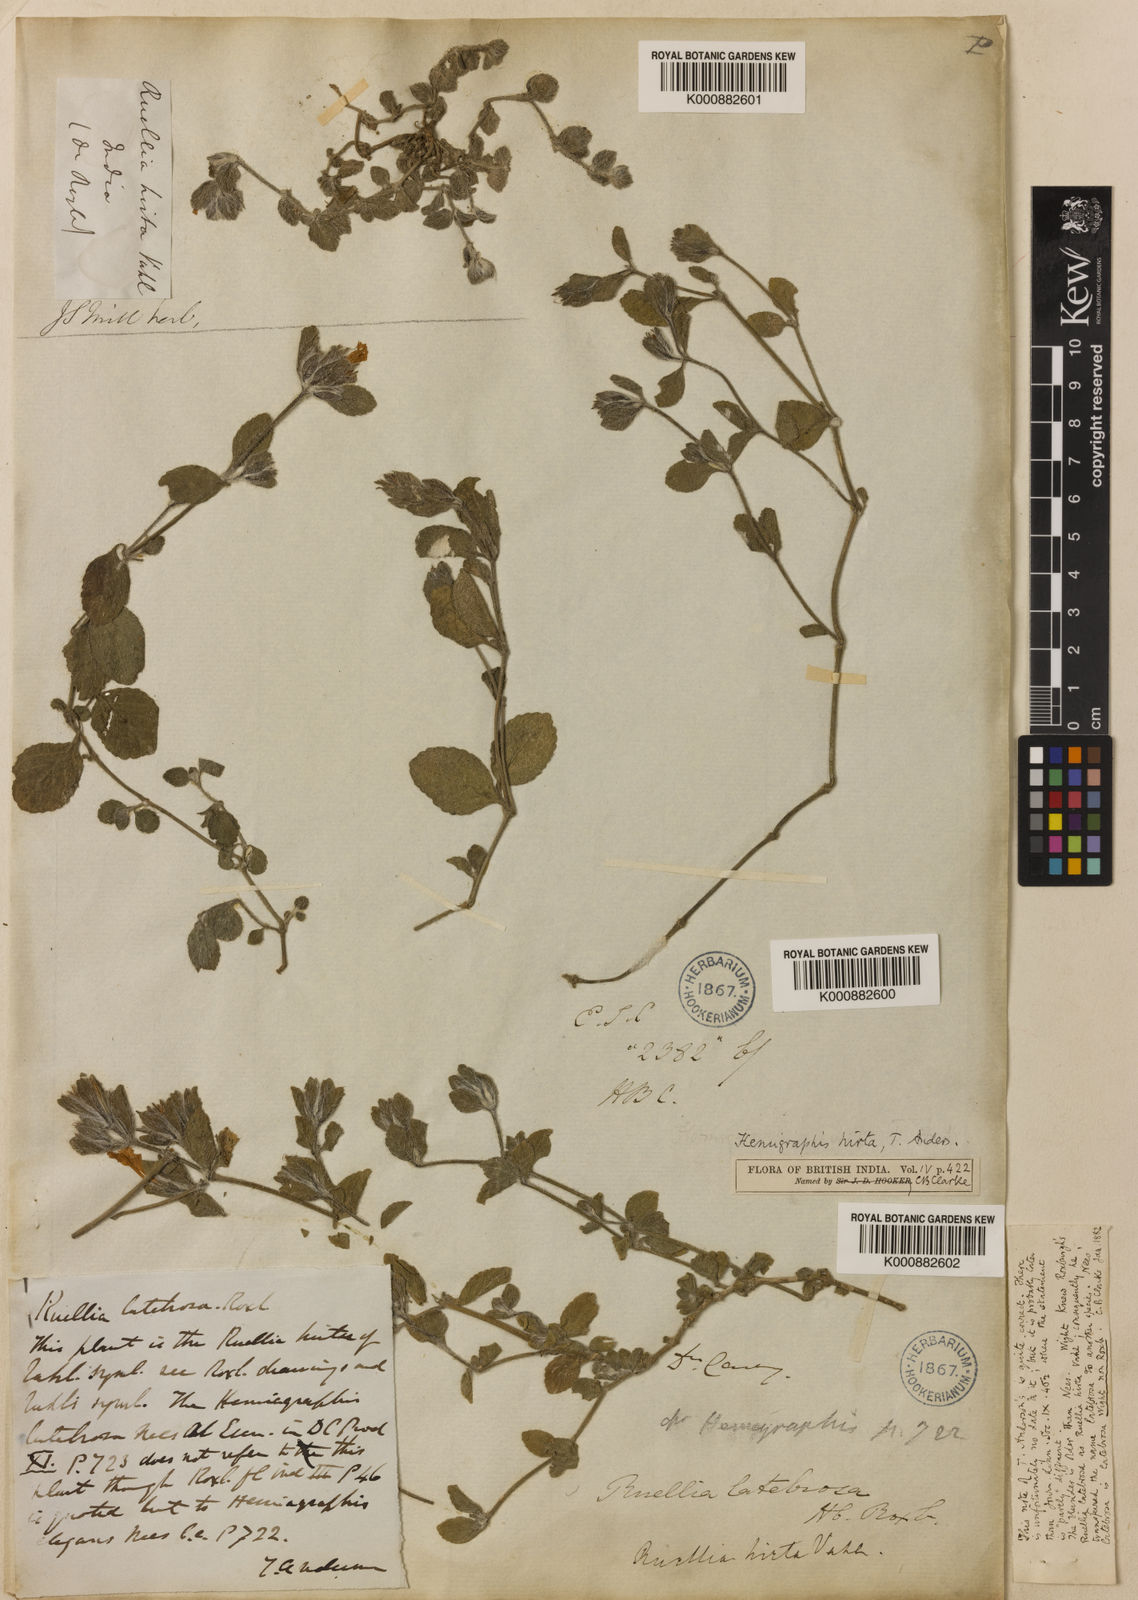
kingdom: Plantae
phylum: Tracheophyta
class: Magnoliopsida
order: Lamiales
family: Acanthaceae
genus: Strobilanthes
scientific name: Strobilanthes hirta
